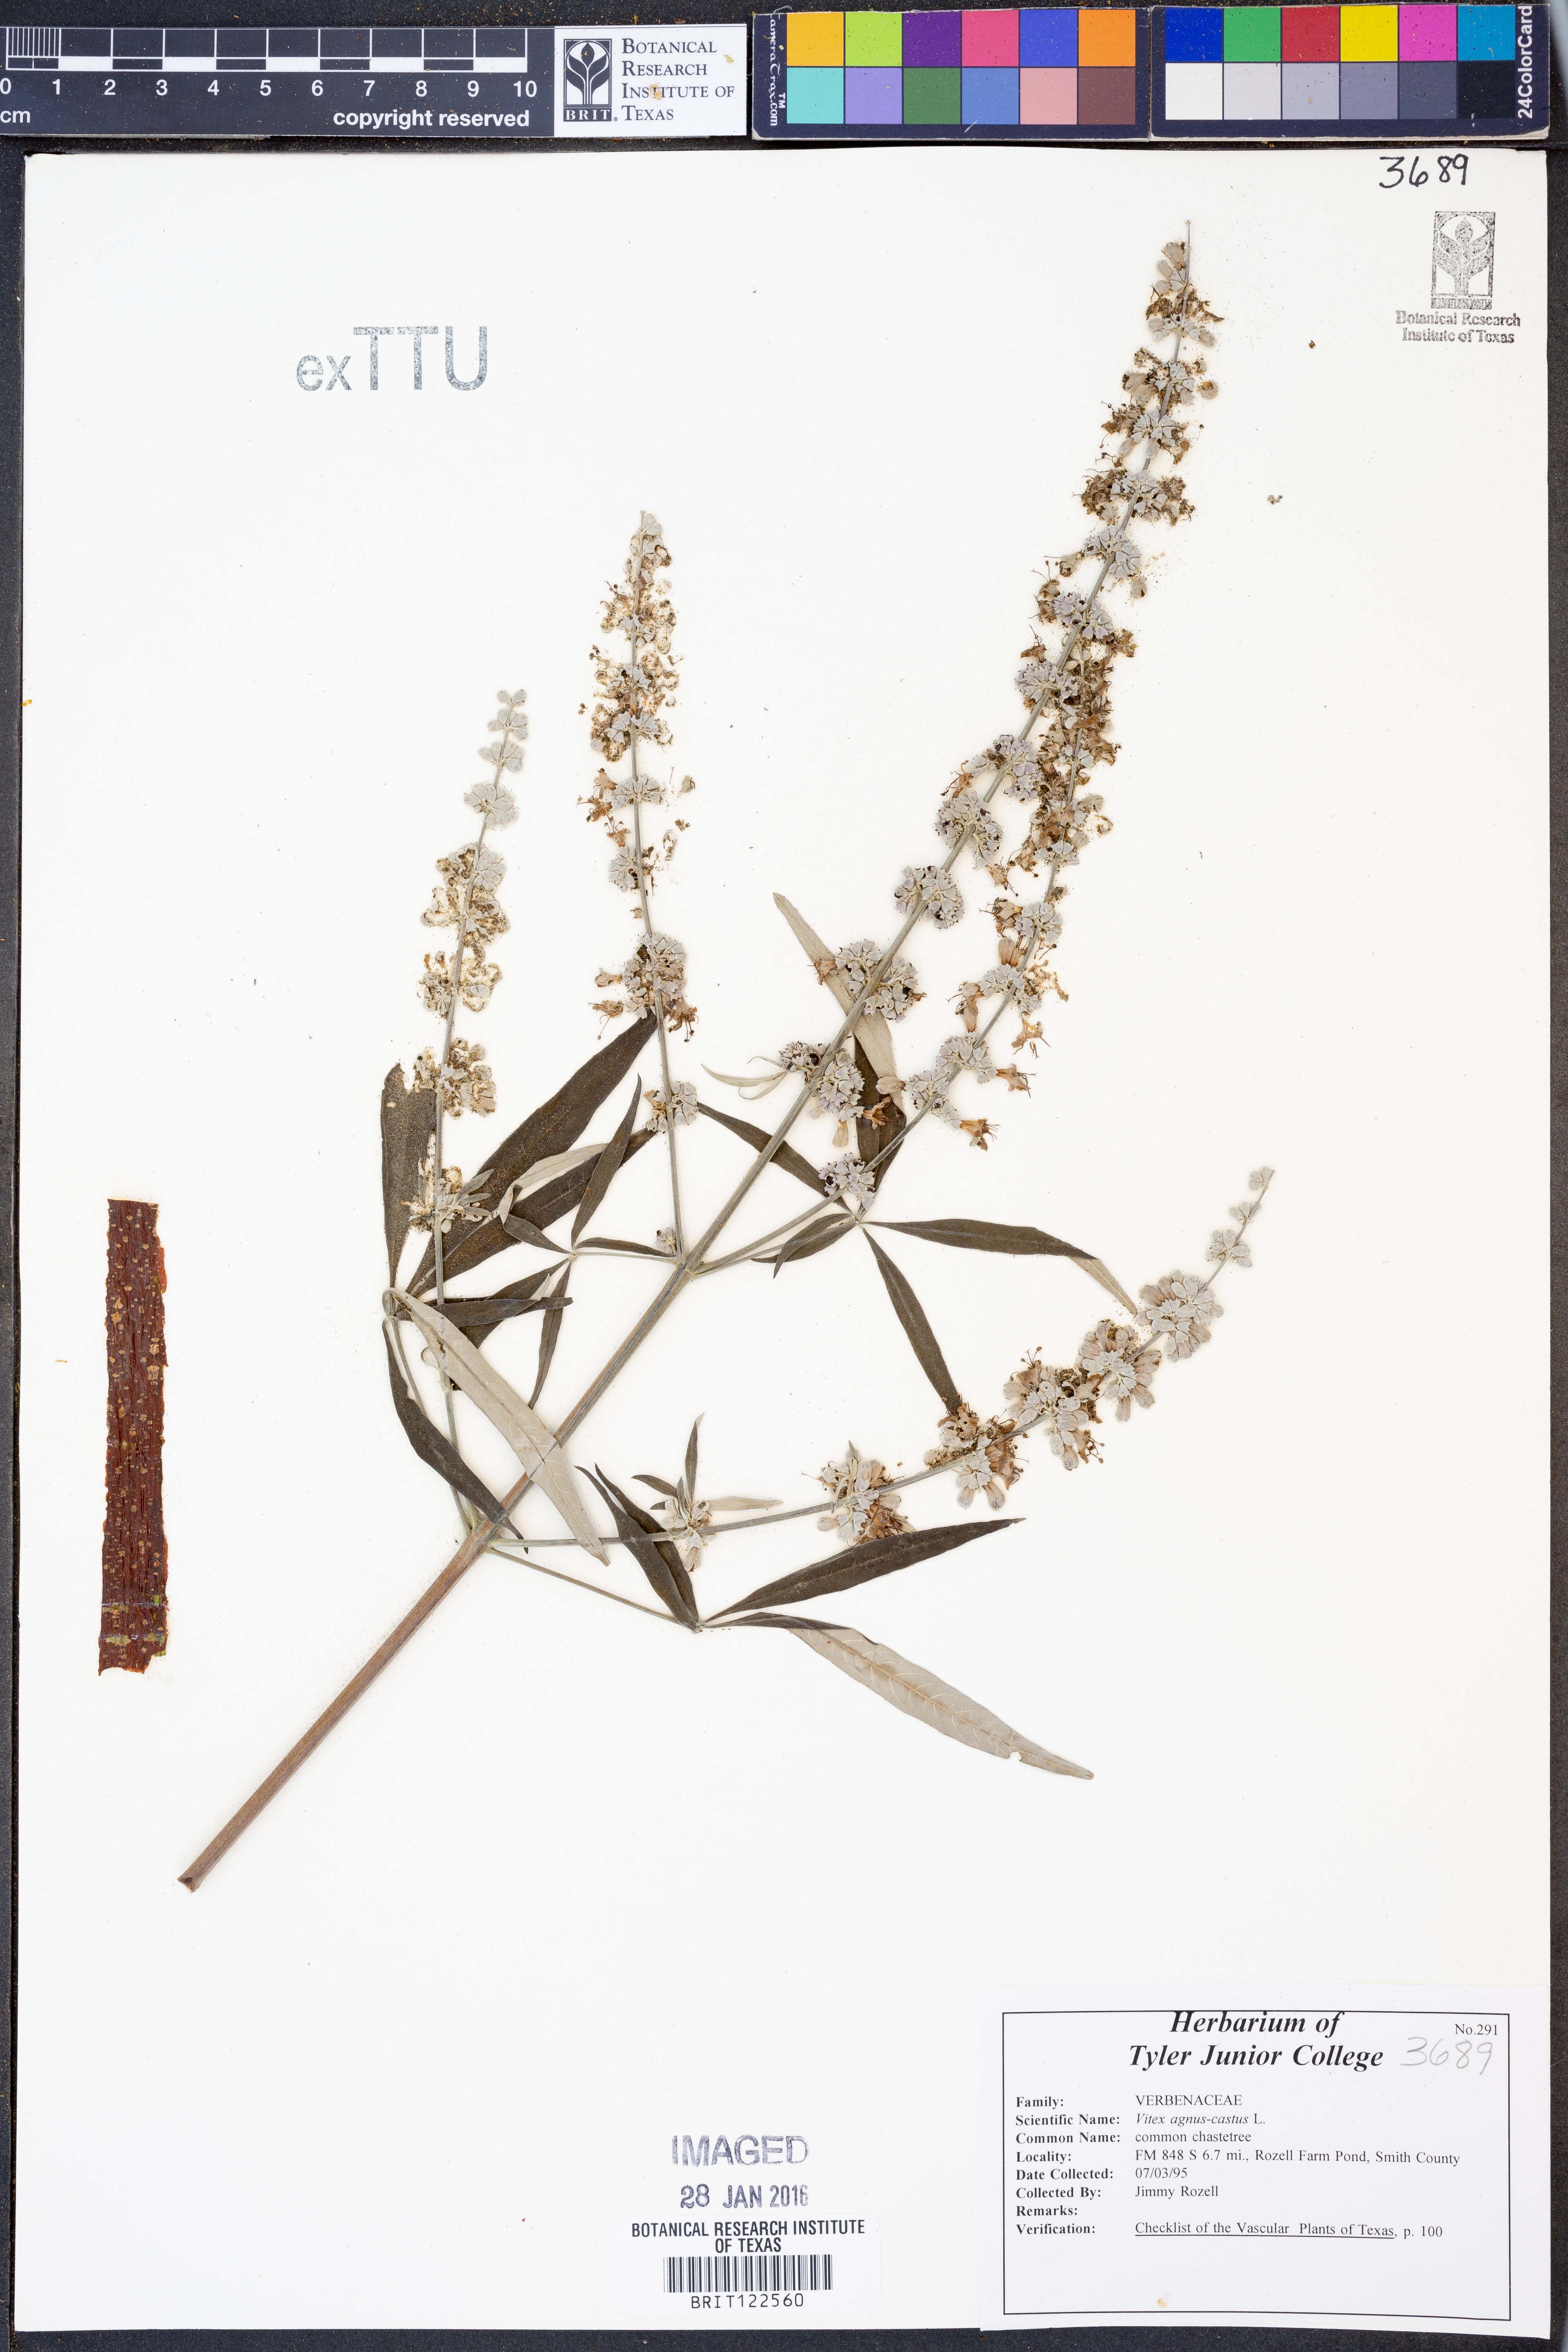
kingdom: Plantae
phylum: Tracheophyta
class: Magnoliopsida
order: Lamiales
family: Lamiaceae
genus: Vitex
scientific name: Vitex agnus-castus
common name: Chasteberry
